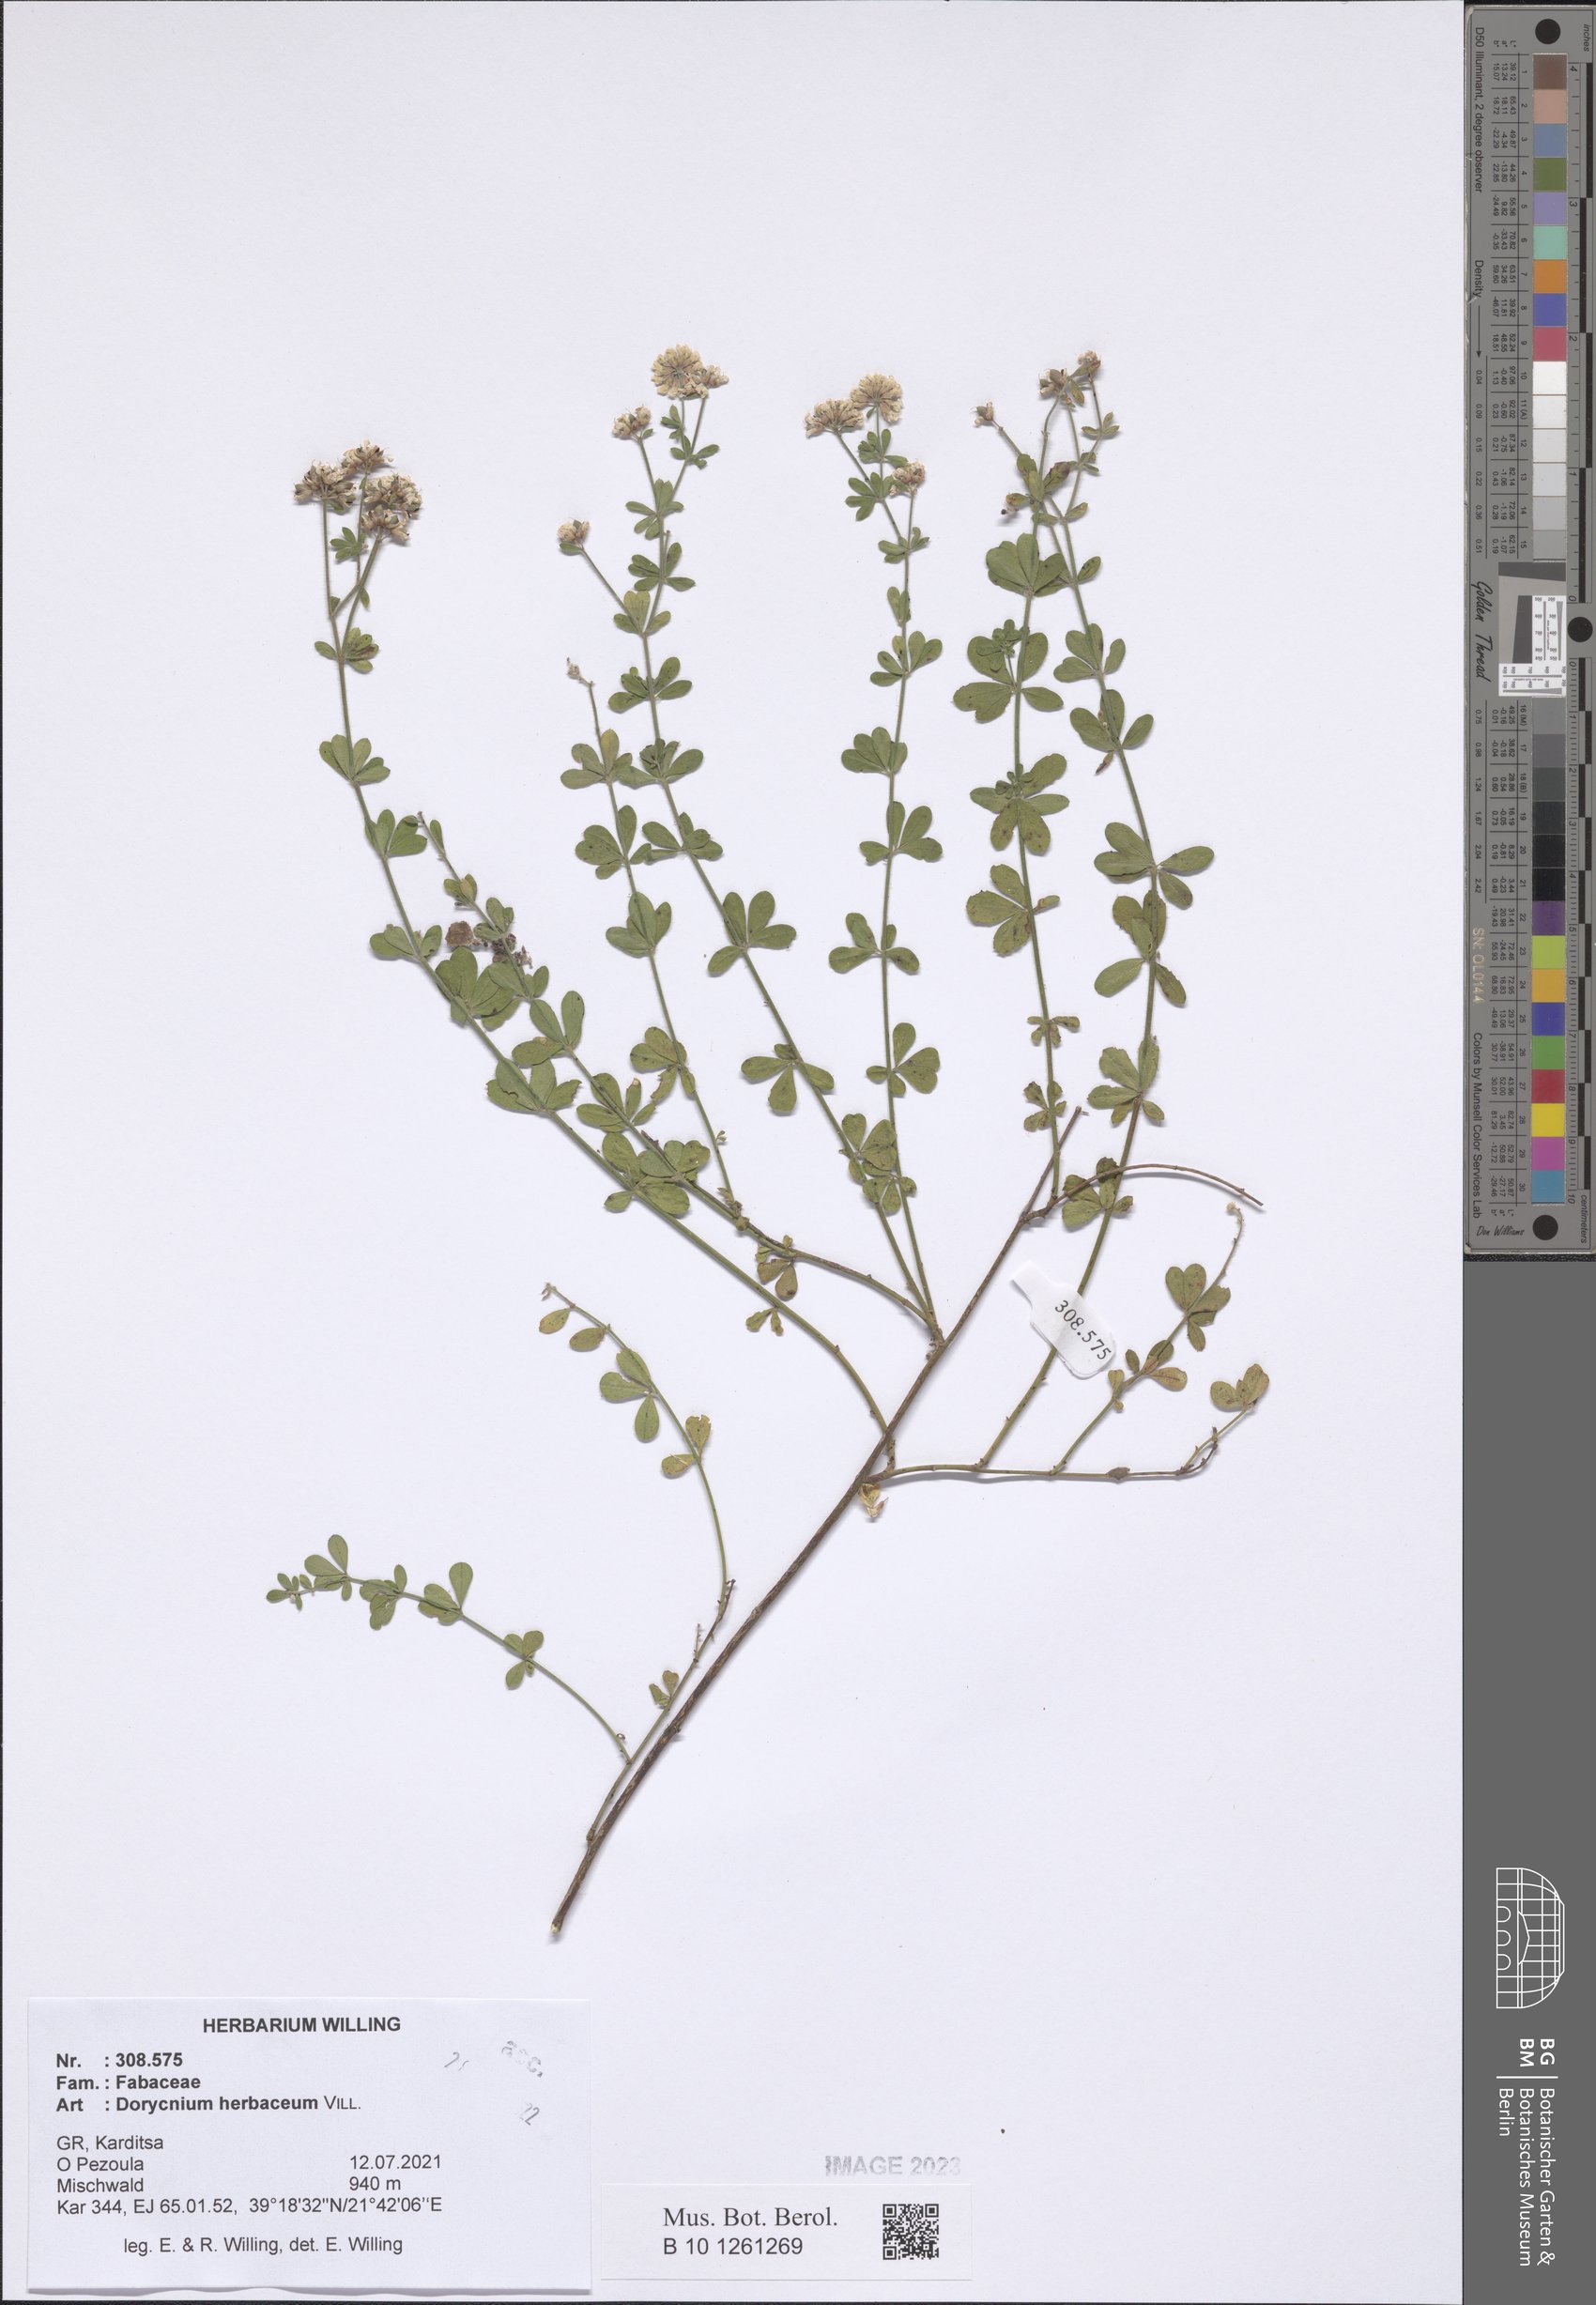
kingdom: Plantae
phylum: Tracheophyta
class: Magnoliopsida
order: Fabales
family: Fabaceae
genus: Lotus
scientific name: Lotus herbaceus
